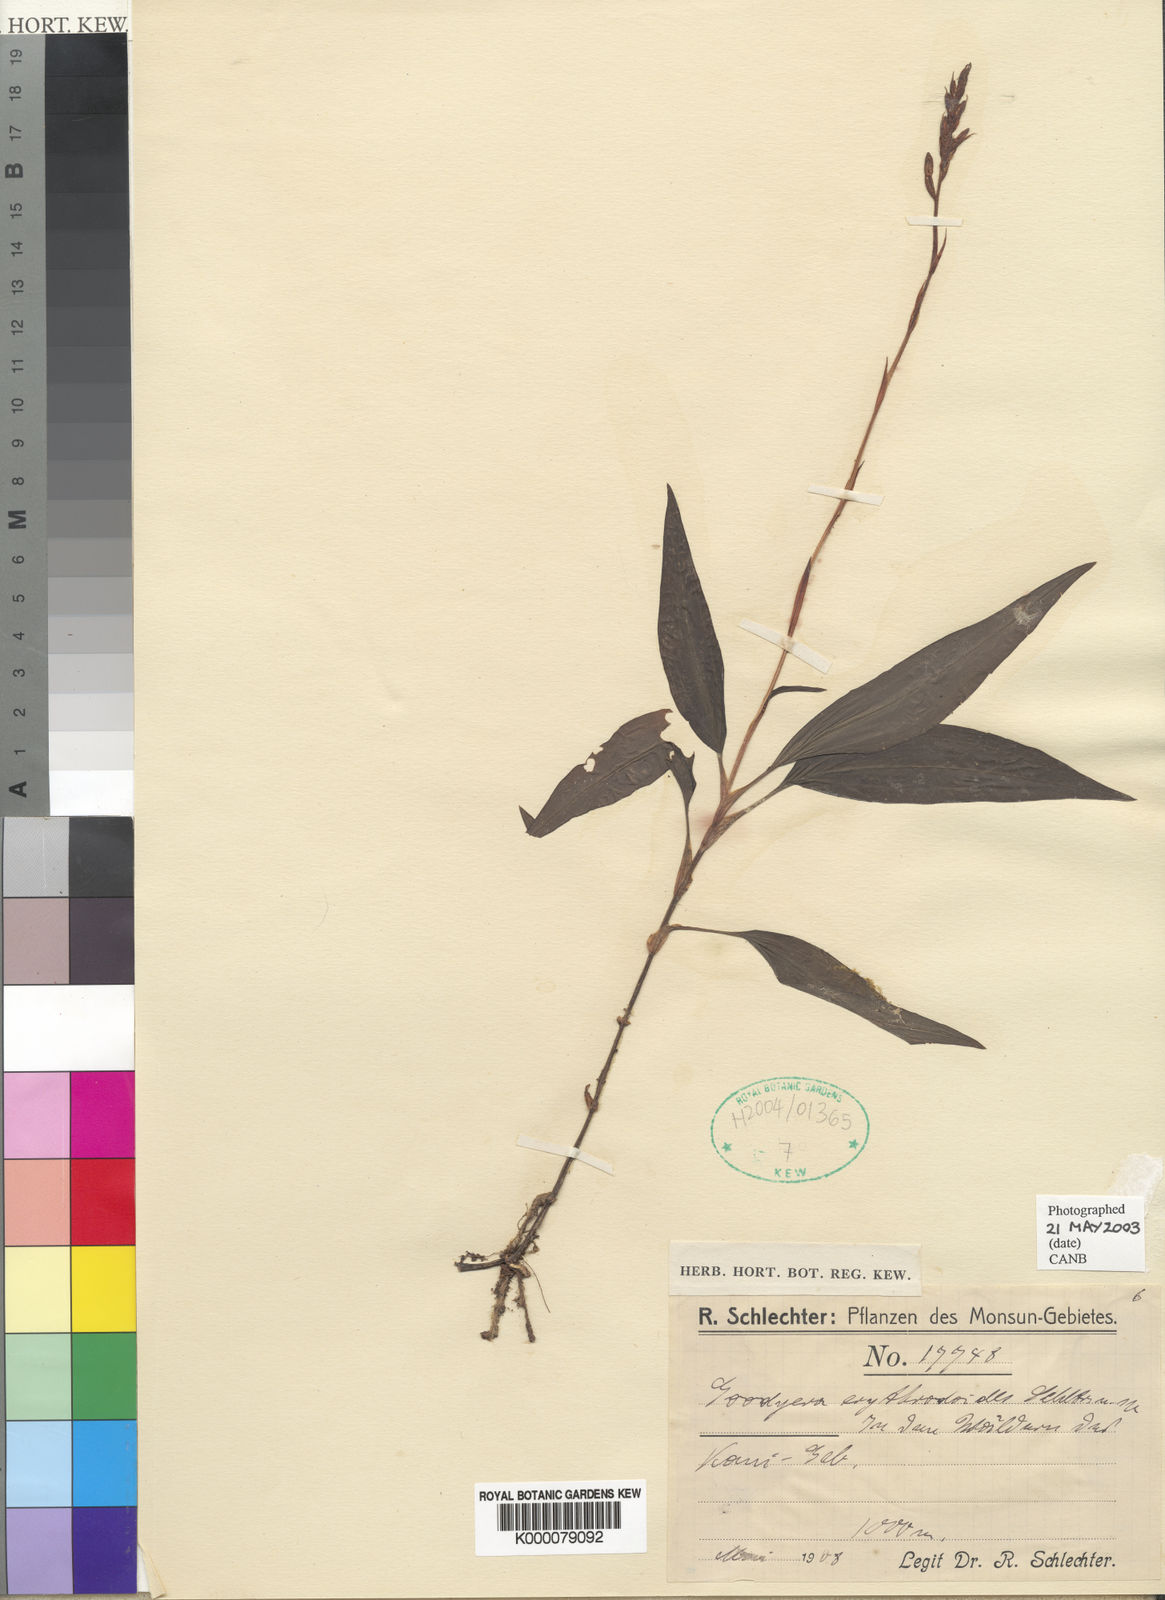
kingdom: Plantae
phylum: Tracheophyta
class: Liliopsida
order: Asparagales
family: Orchidaceae
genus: Goodyera
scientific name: Goodyera erythrodoides
